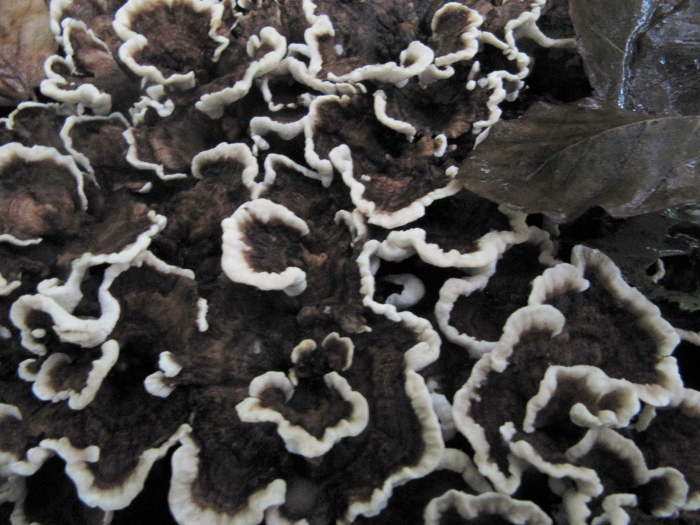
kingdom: Fungi
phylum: Basidiomycota
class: Agaricomycetes
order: Polyporales
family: Polyporaceae
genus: Trametes
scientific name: Trametes versicolor
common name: broget læderporesvamp
